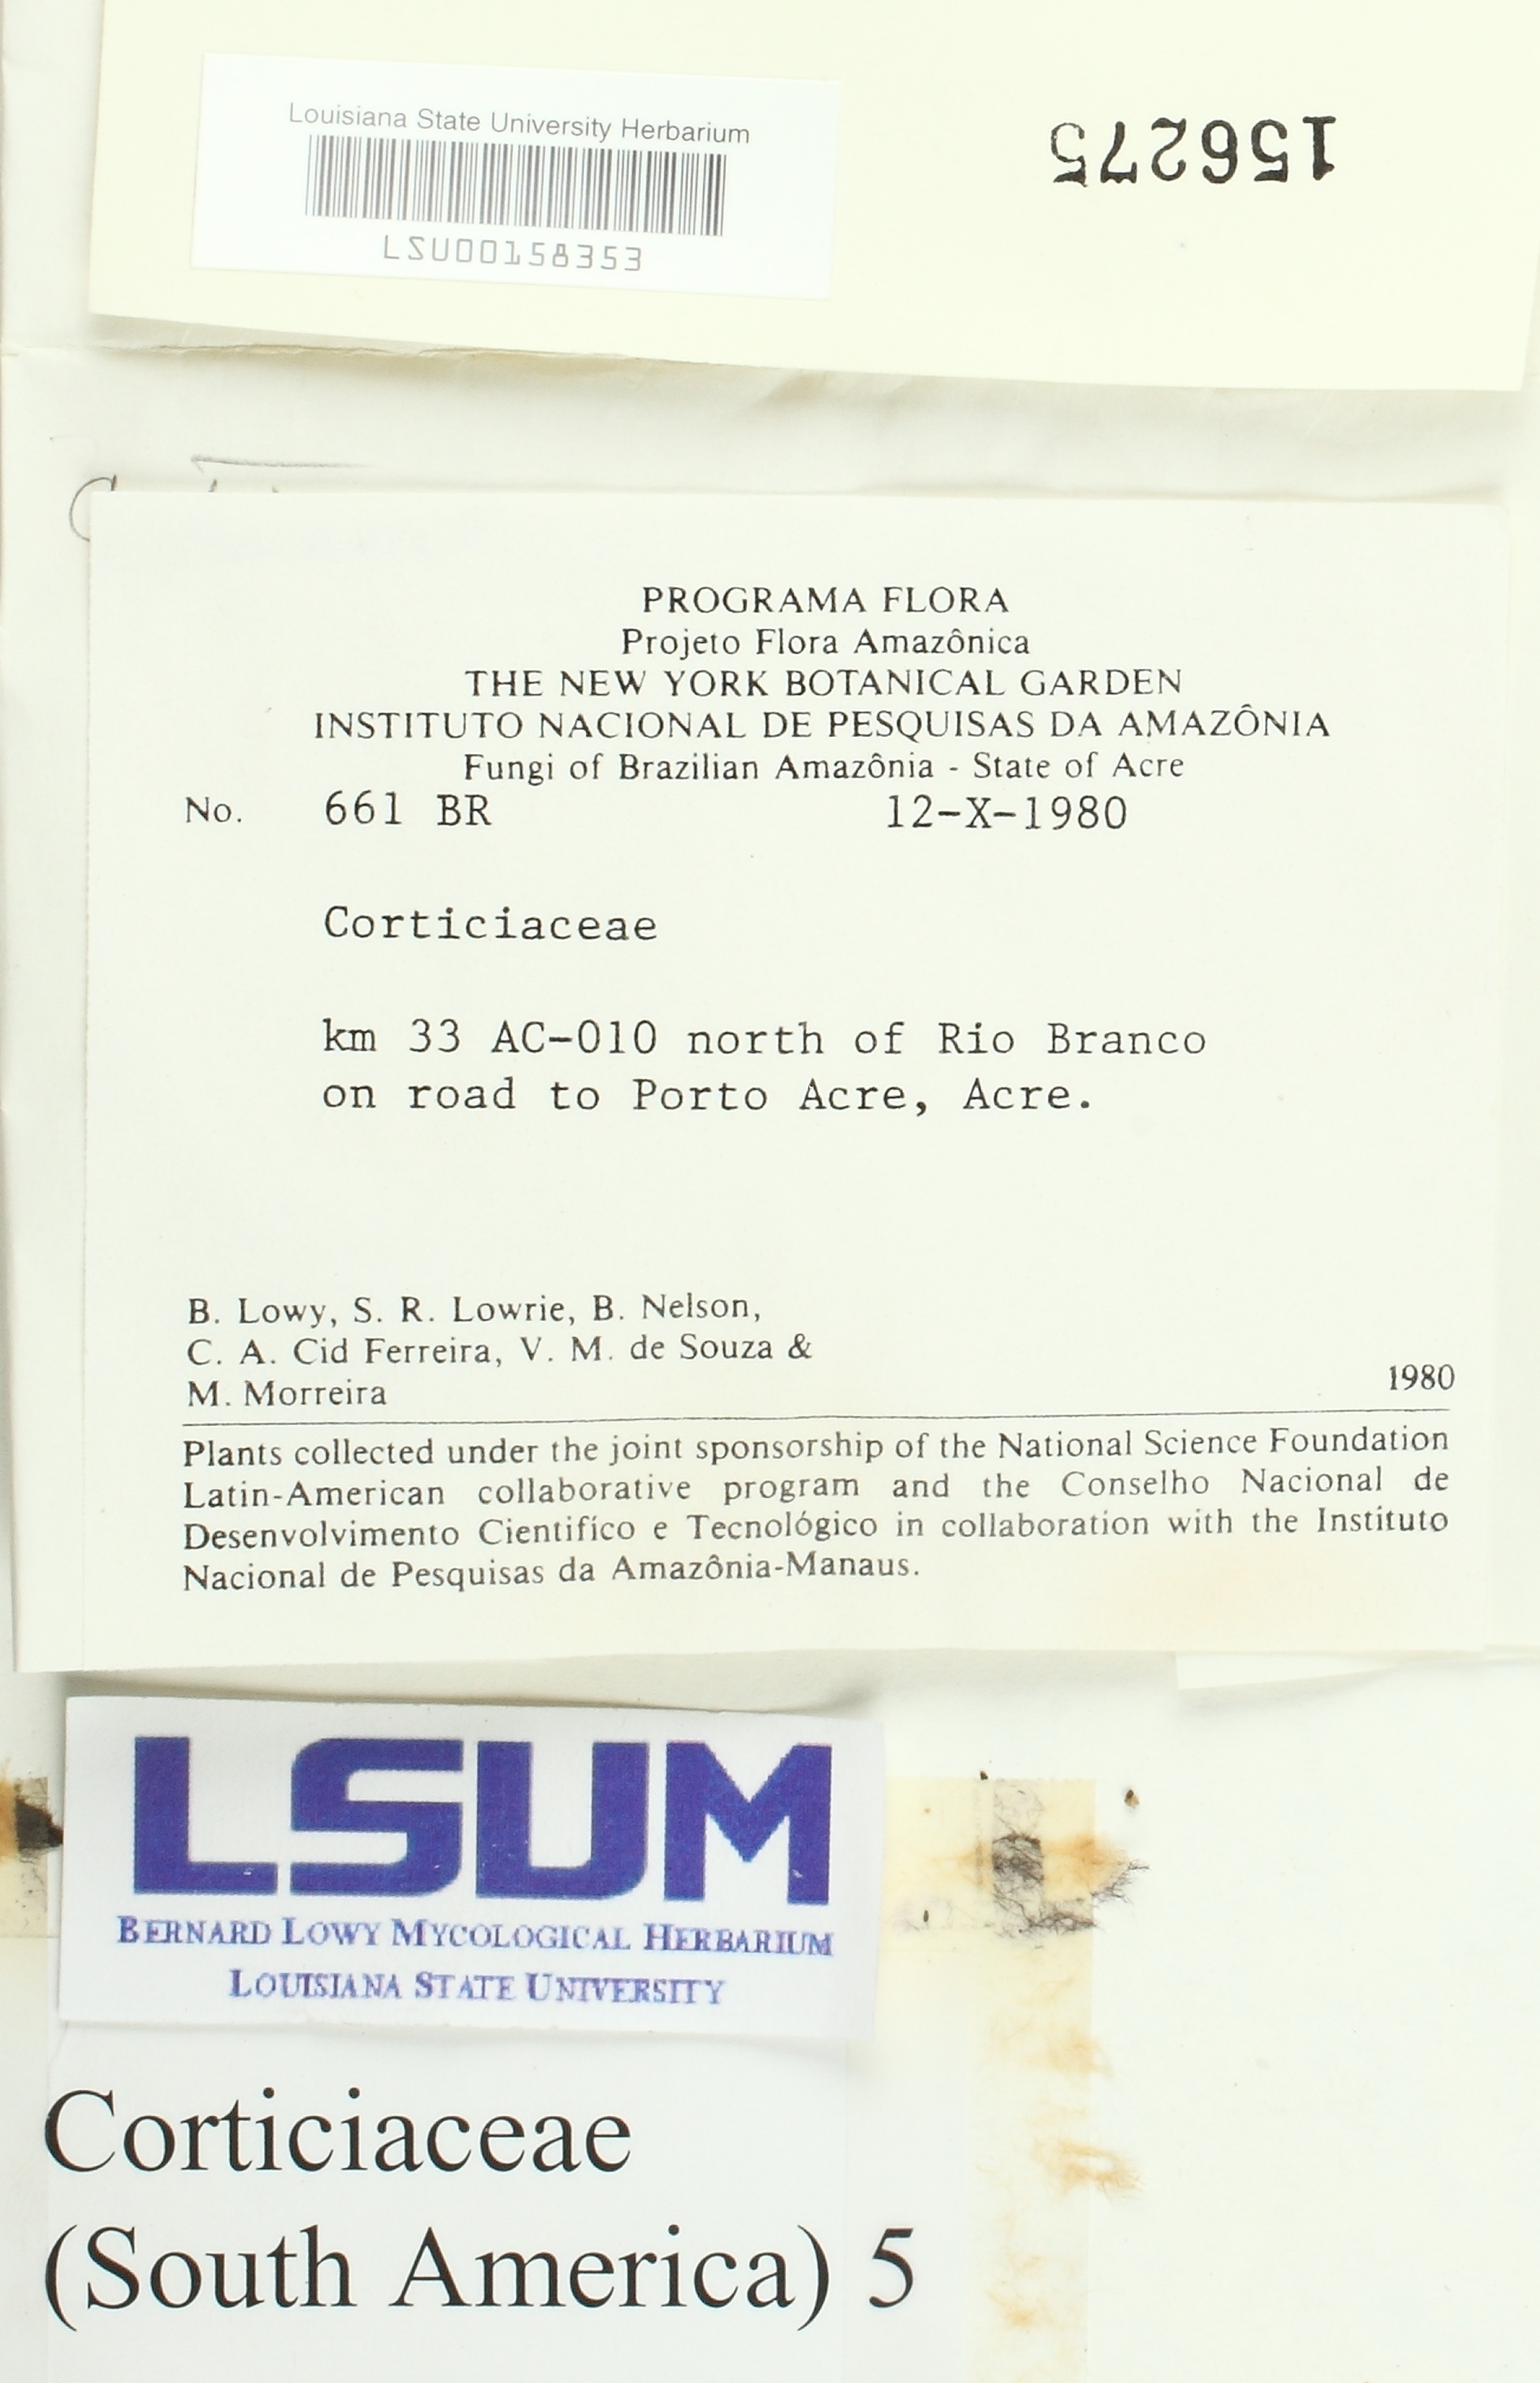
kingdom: Fungi
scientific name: Fungi
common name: Fungi
